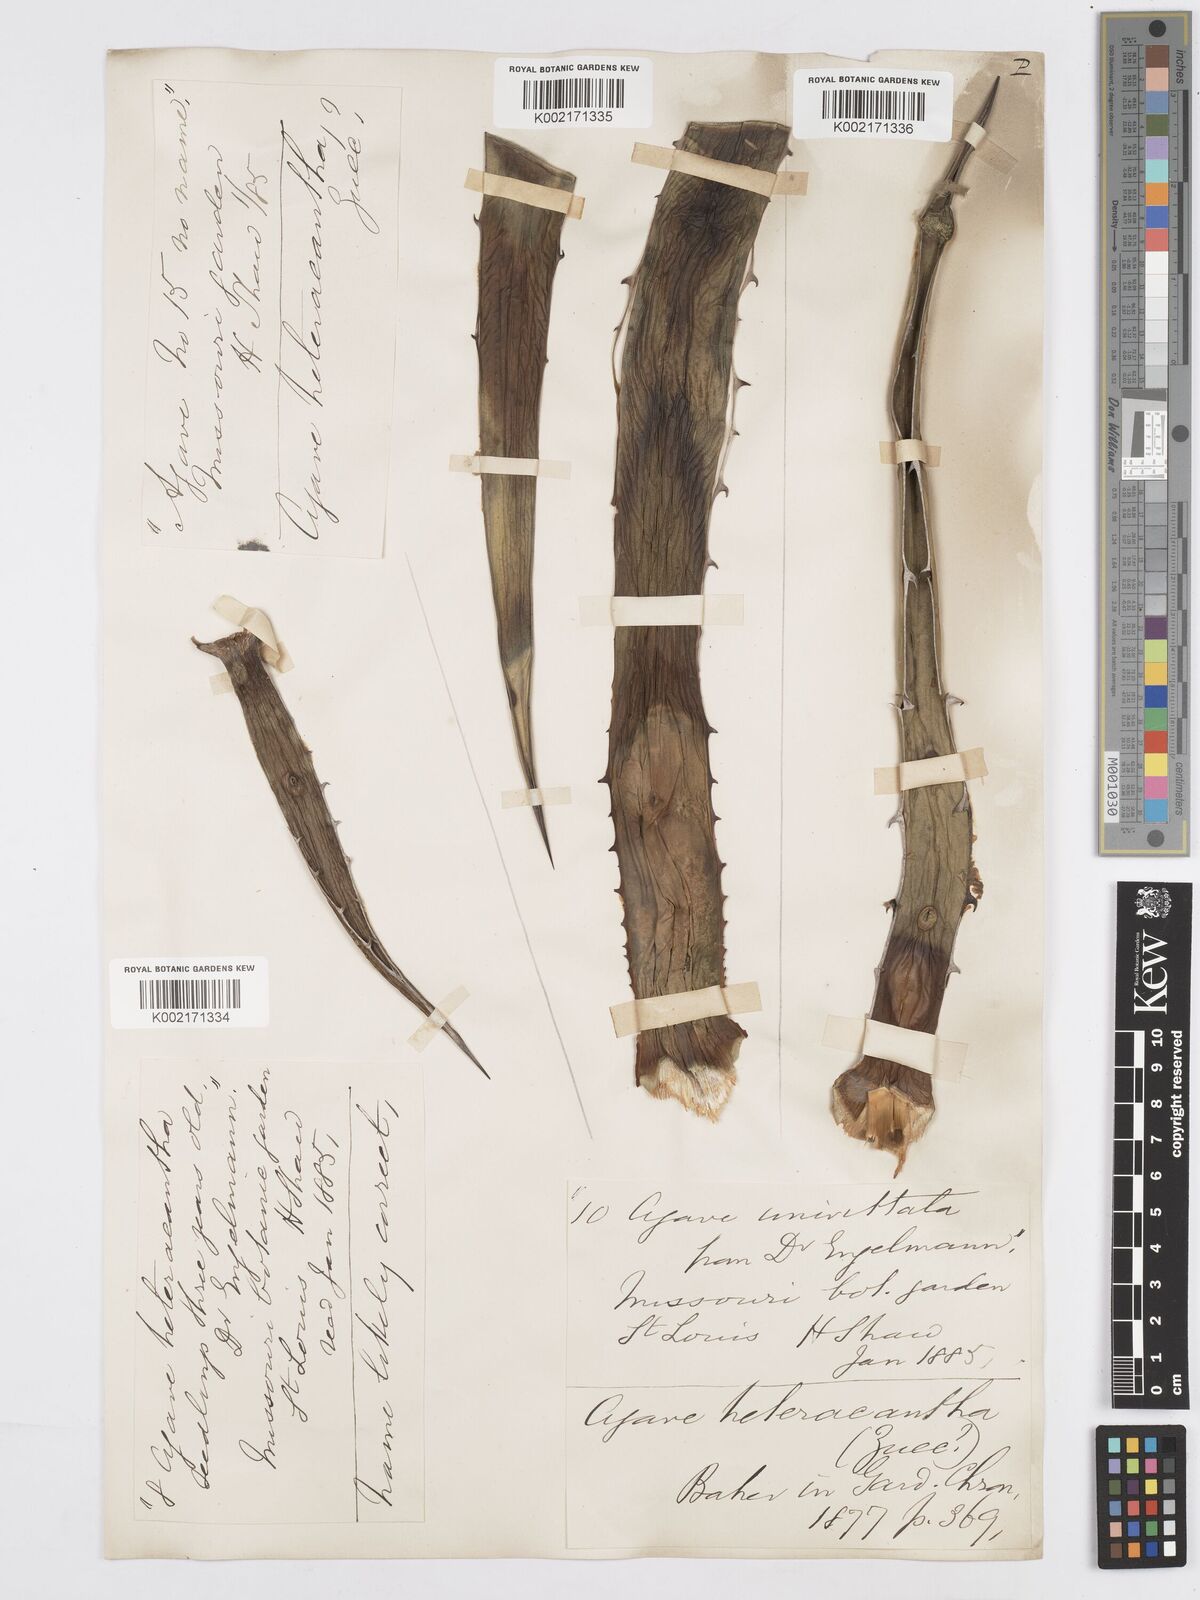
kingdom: Plantae
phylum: Tracheophyta
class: Liliopsida
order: Asparagales
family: Asparagaceae
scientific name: Asparagaceae
